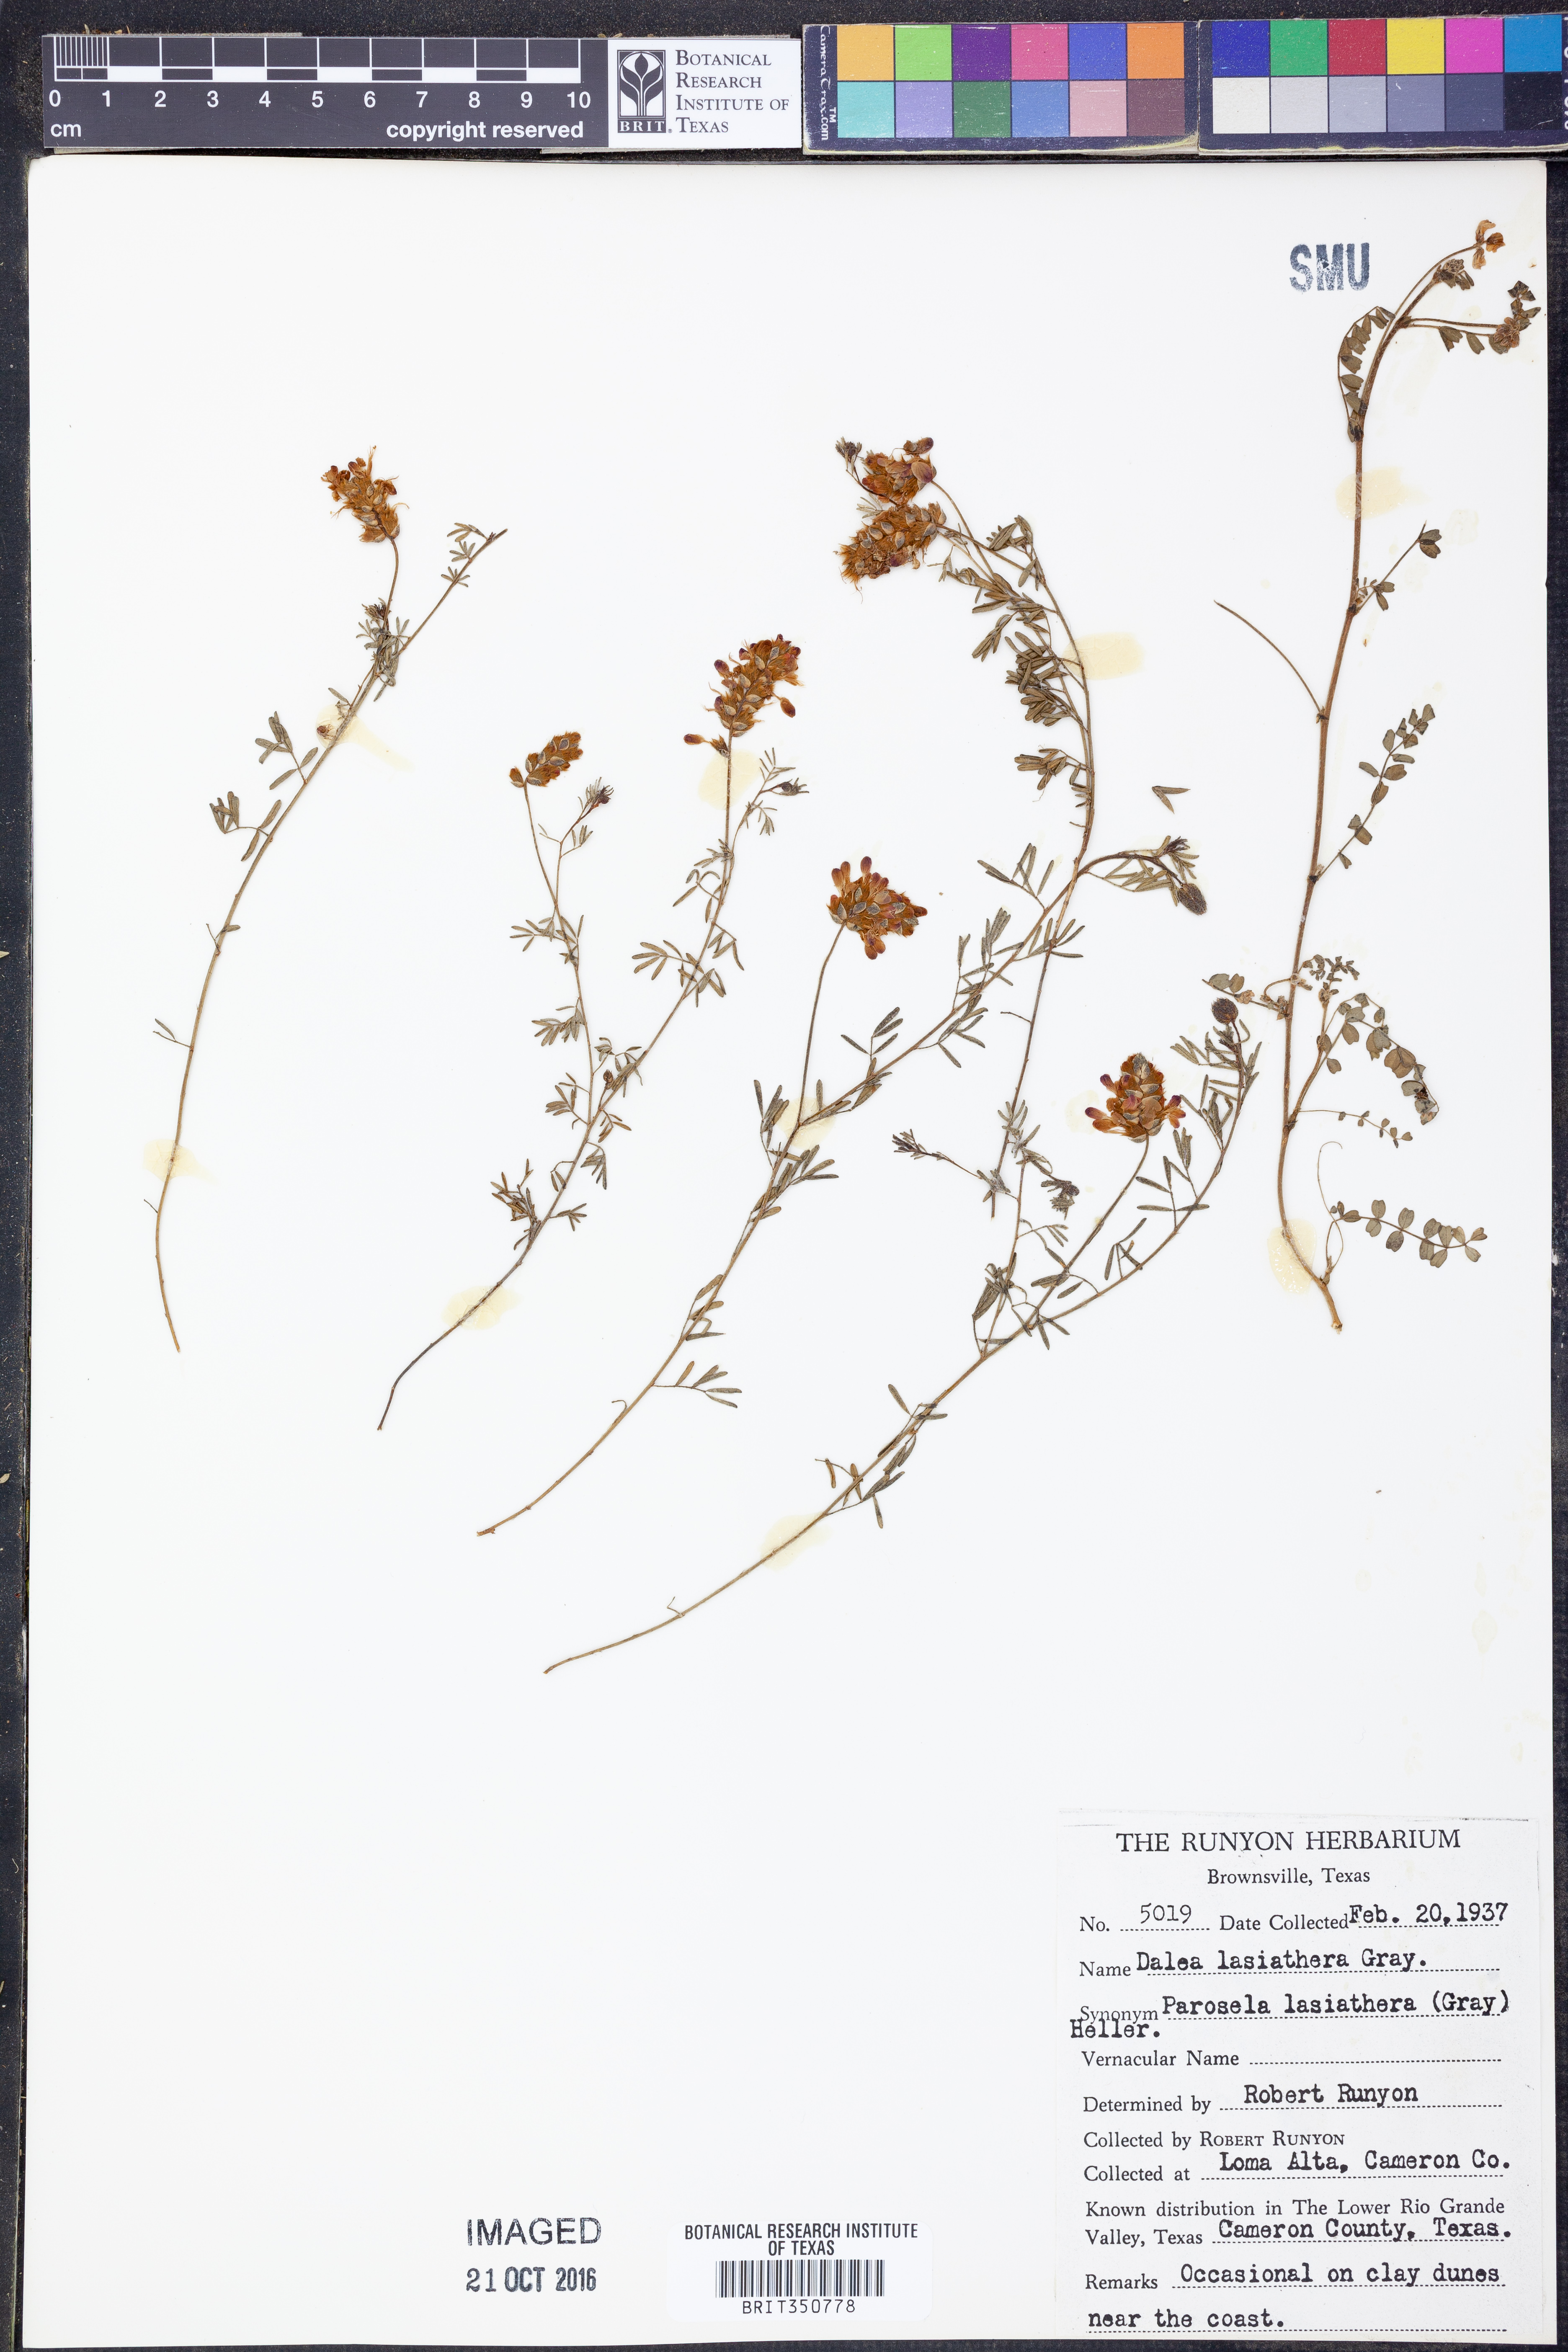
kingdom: Plantae
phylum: Tracheophyta
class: Magnoliopsida
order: Fabales
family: Fabaceae
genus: Dalea
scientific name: Dalea lasiathera
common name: Purple prairie-clover
